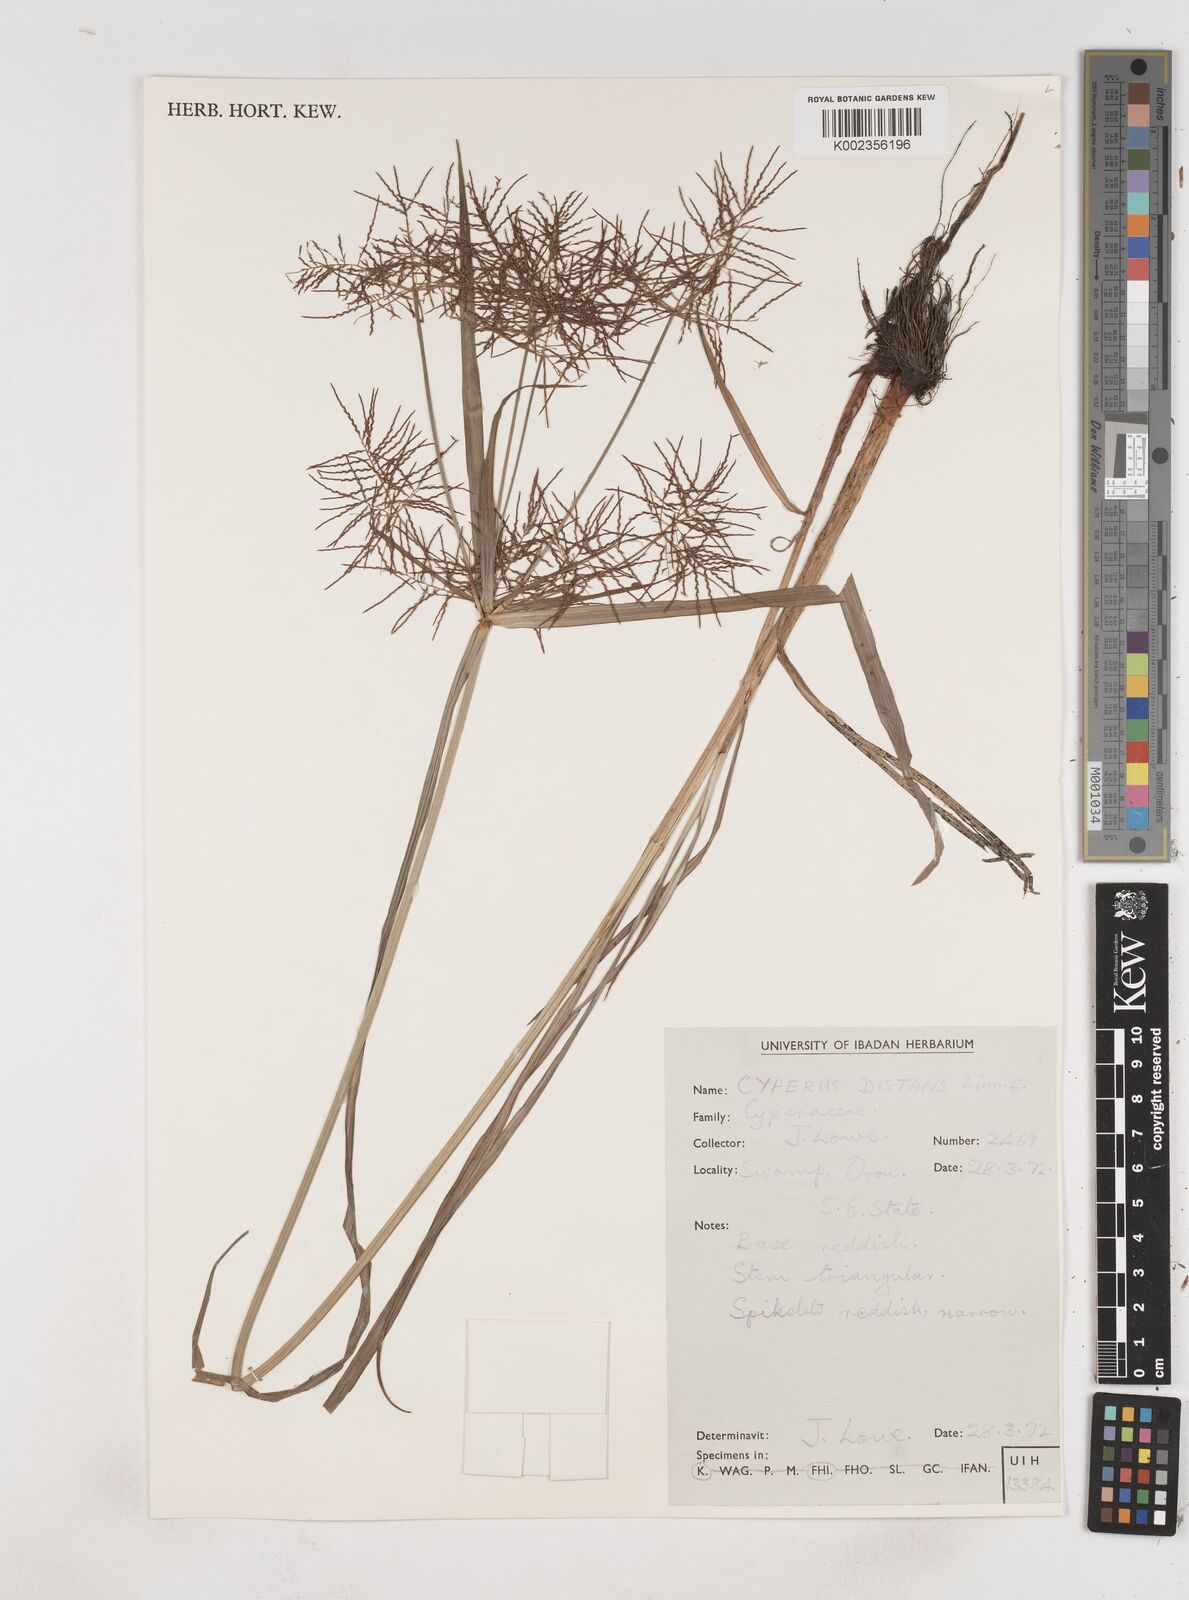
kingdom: Plantae
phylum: Tracheophyta
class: Liliopsida
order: Poales
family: Cyperaceae
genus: Cyperus
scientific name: Cyperus distans
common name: Slender cyperus
